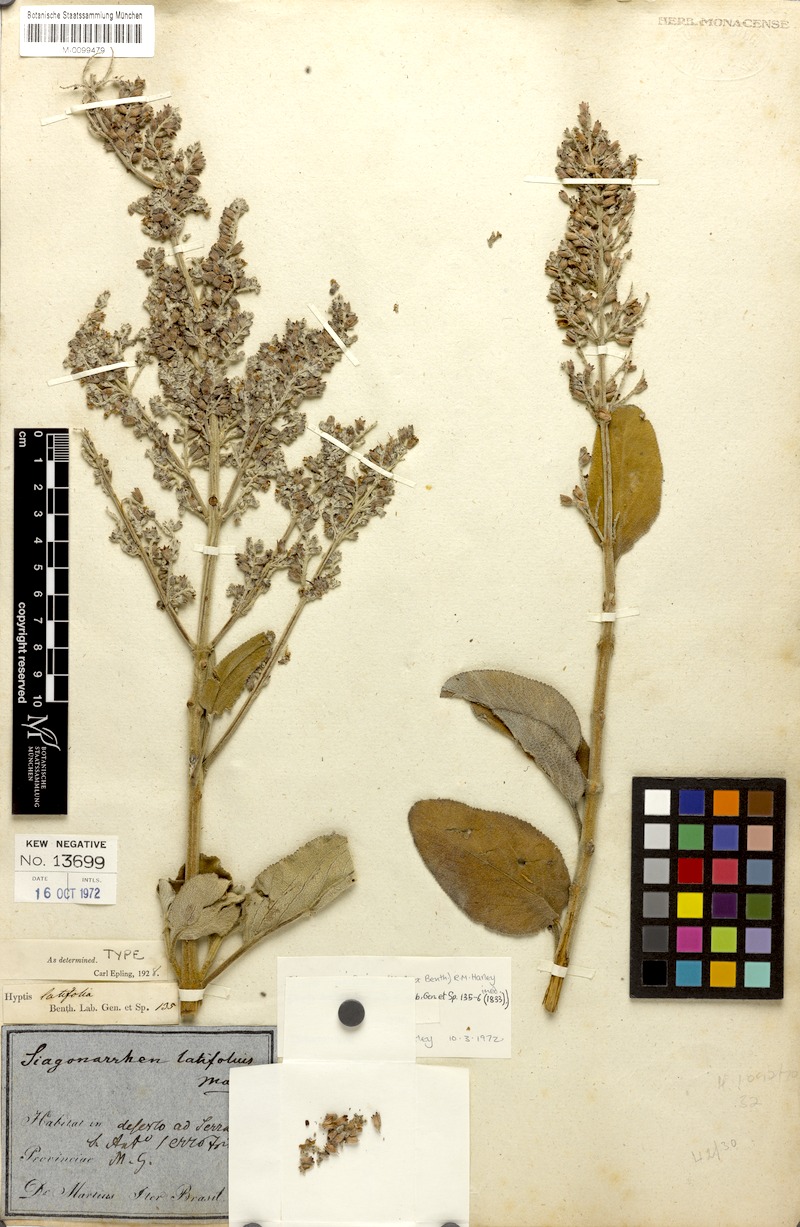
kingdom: Plantae
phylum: Tracheophyta
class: Magnoliopsida
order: Lamiales
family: Lamiaceae
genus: Eriope
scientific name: Eriope latifolia
